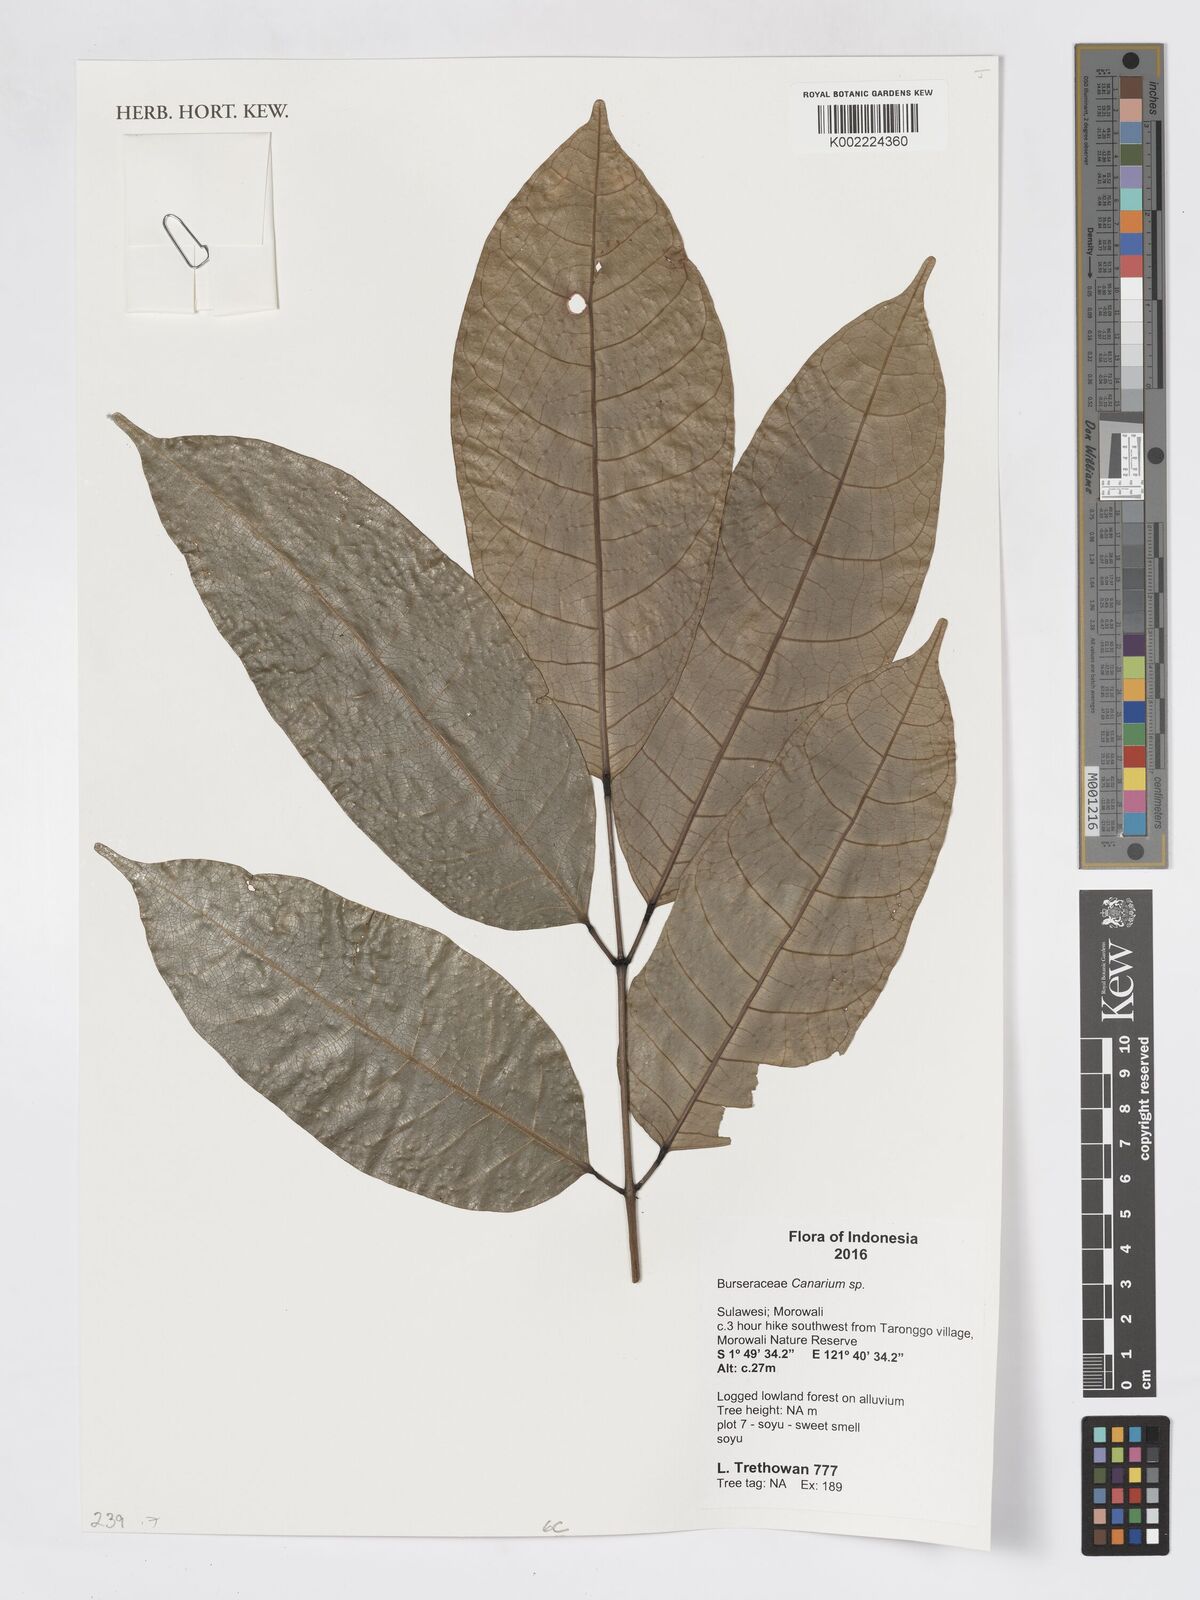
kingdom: Plantae
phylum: Tracheophyta
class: Magnoliopsida
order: Sapindales
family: Burseraceae
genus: Canarium
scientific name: Canarium
